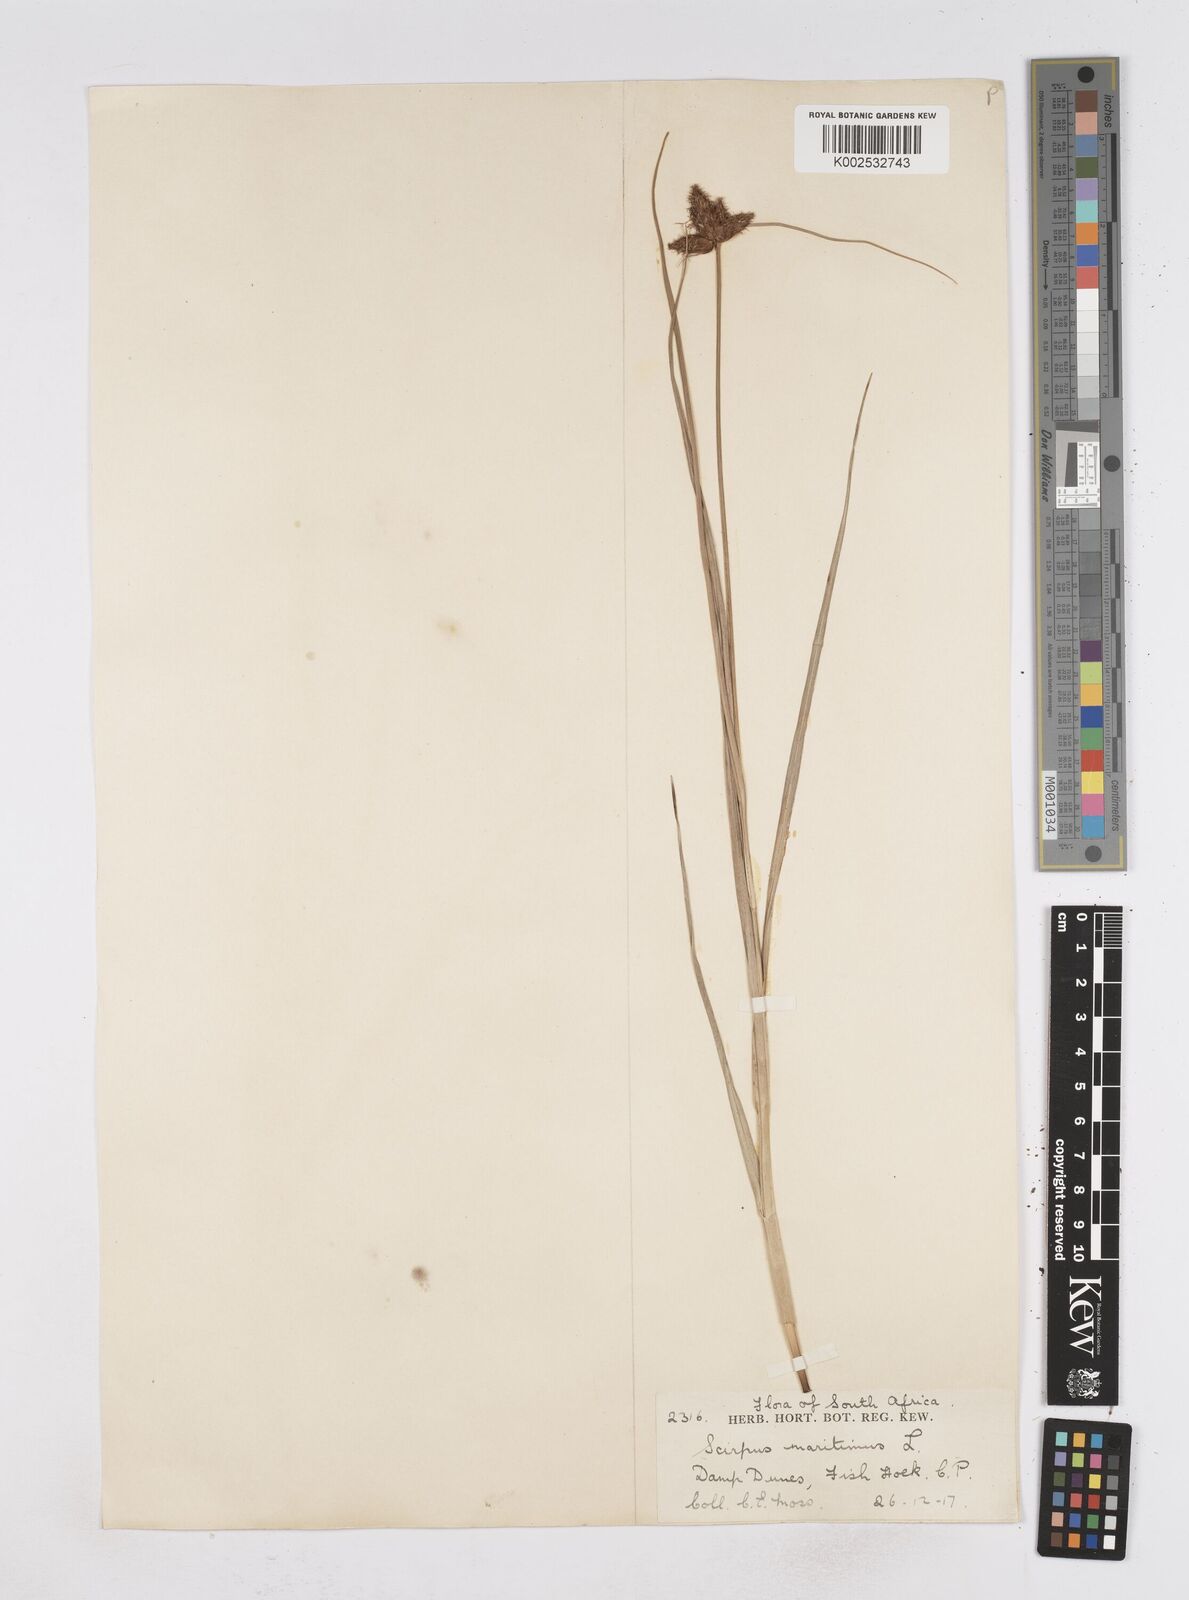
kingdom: Plantae
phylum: Tracheophyta
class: Liliopsida
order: Poales
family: Cyperaceae
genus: Bolboschoenus
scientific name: Bolboschoenus maritimus
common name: Sea club-rush
